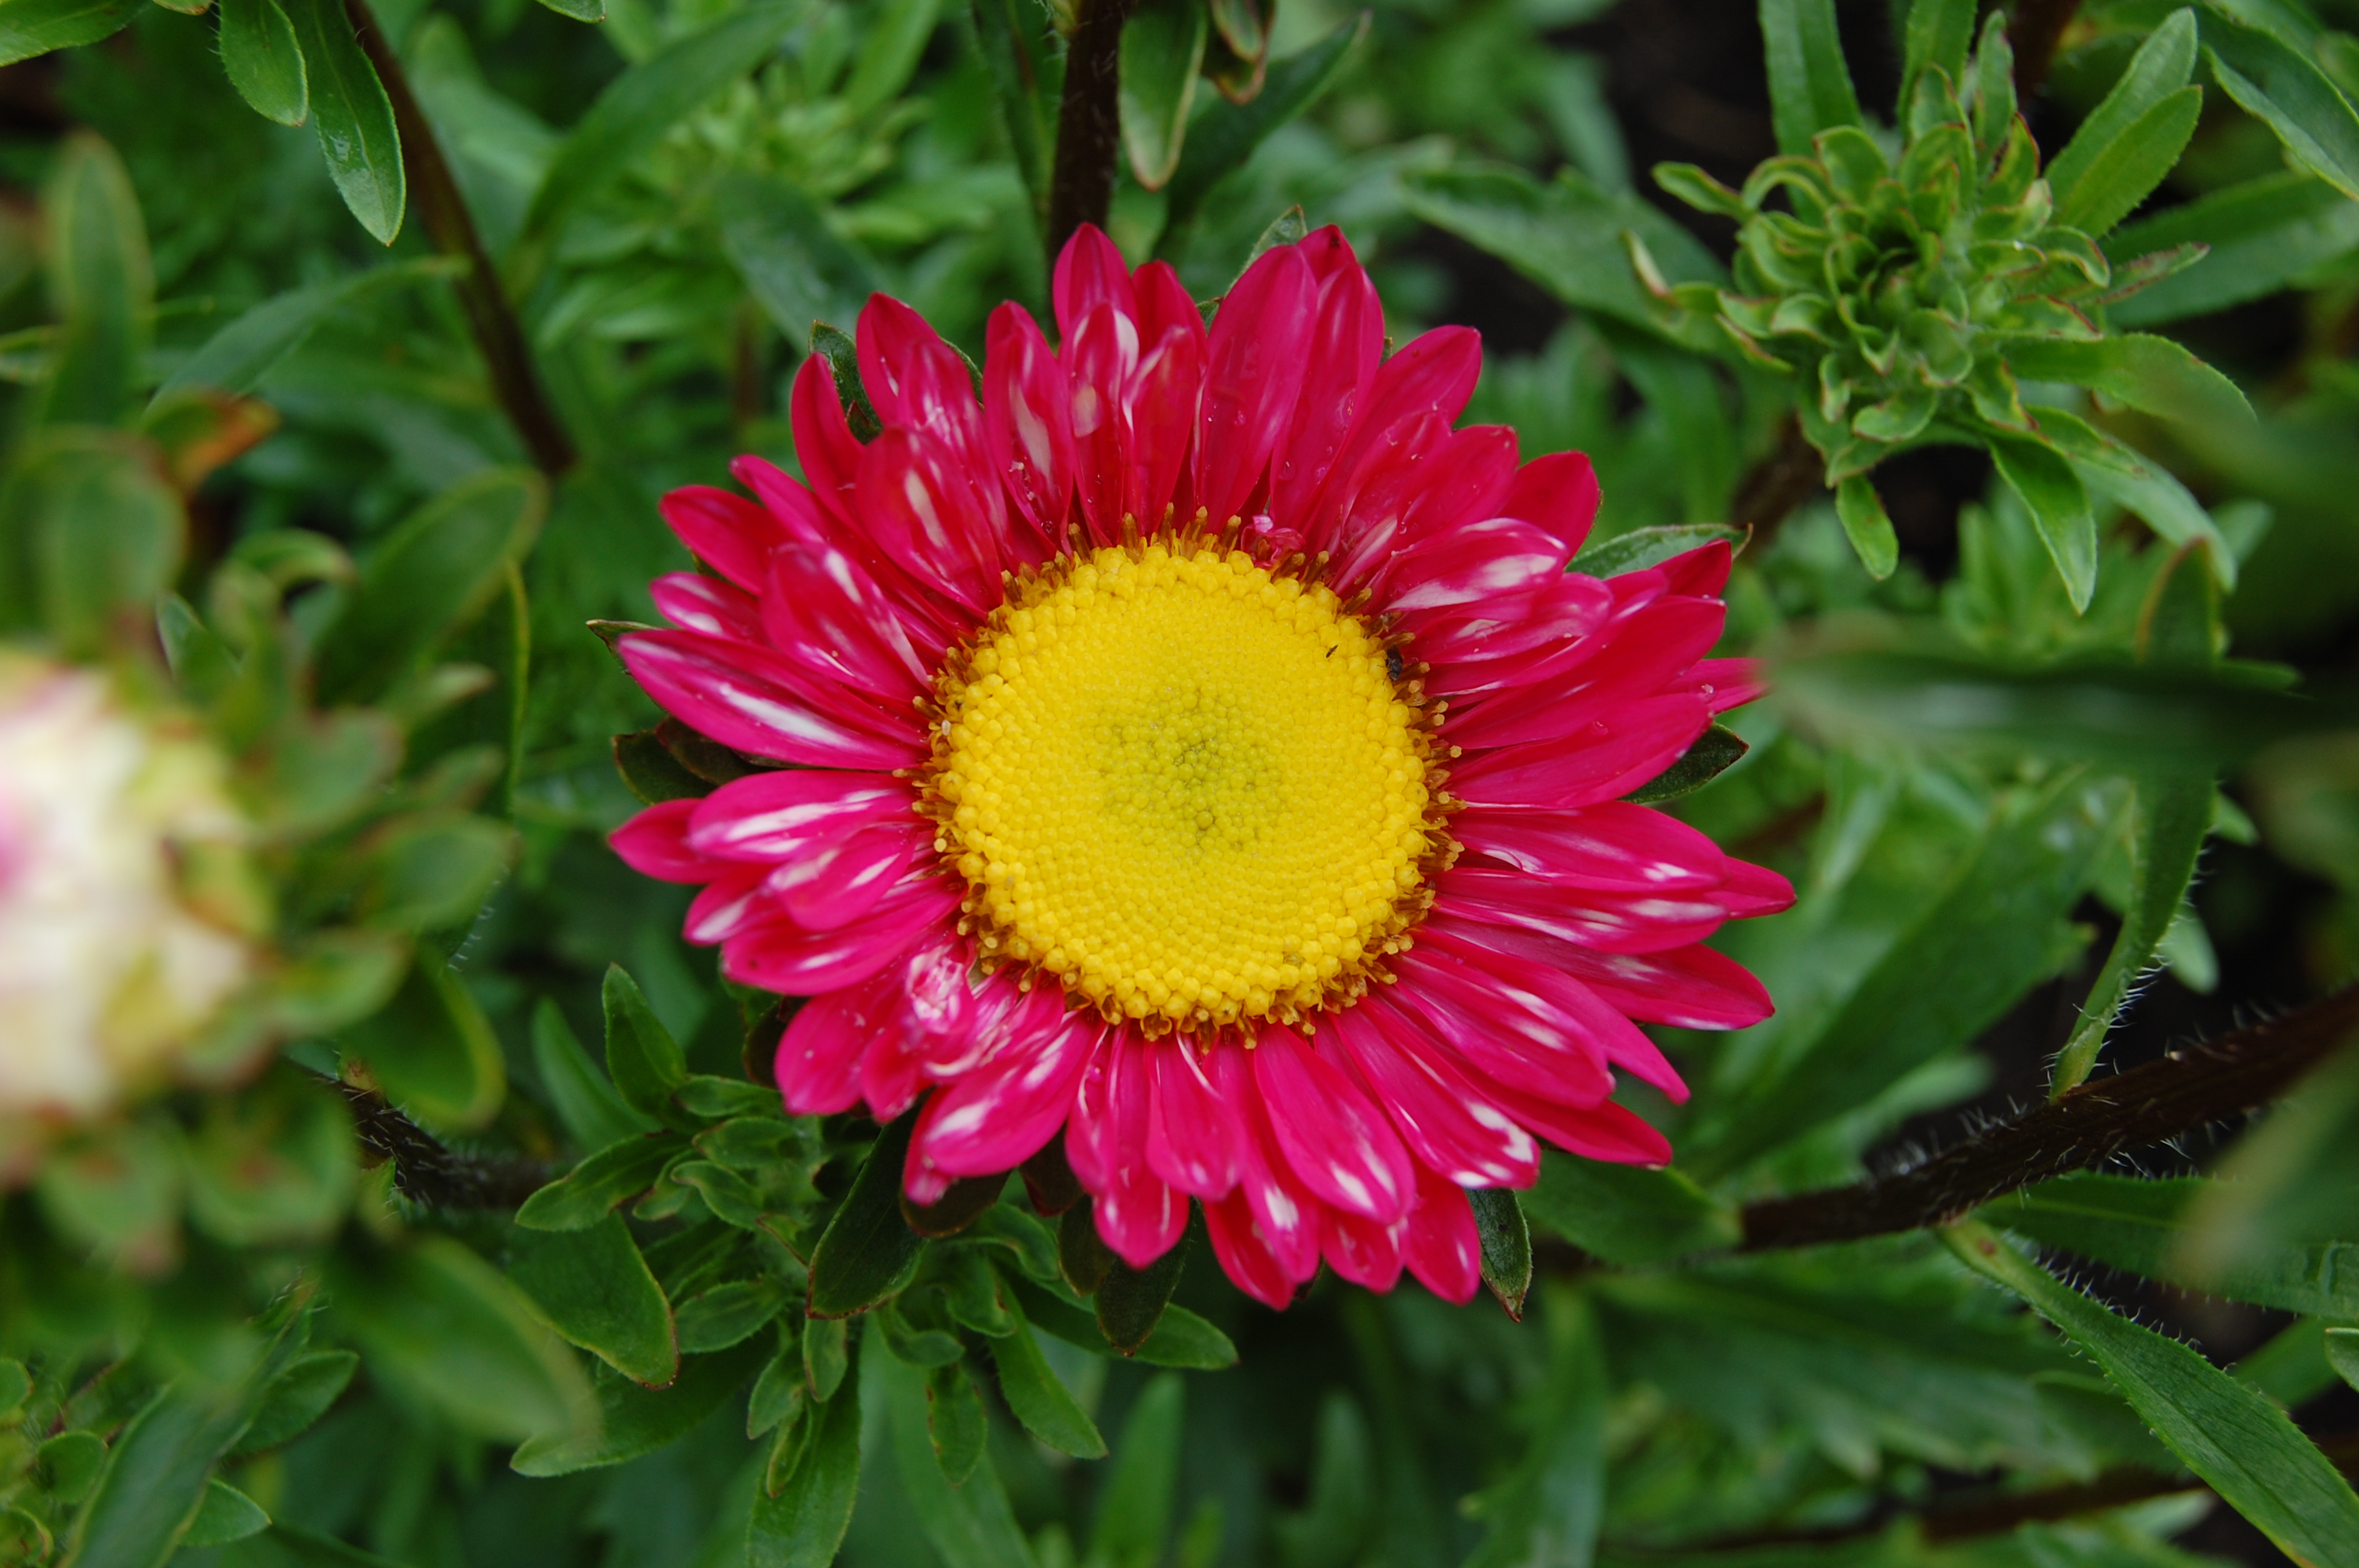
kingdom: Plantae
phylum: Tracheophyta
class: Magnoliopsida
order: Asterales
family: Asteraceae
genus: Callistephus
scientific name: Callistephus chinensis
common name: China aster
